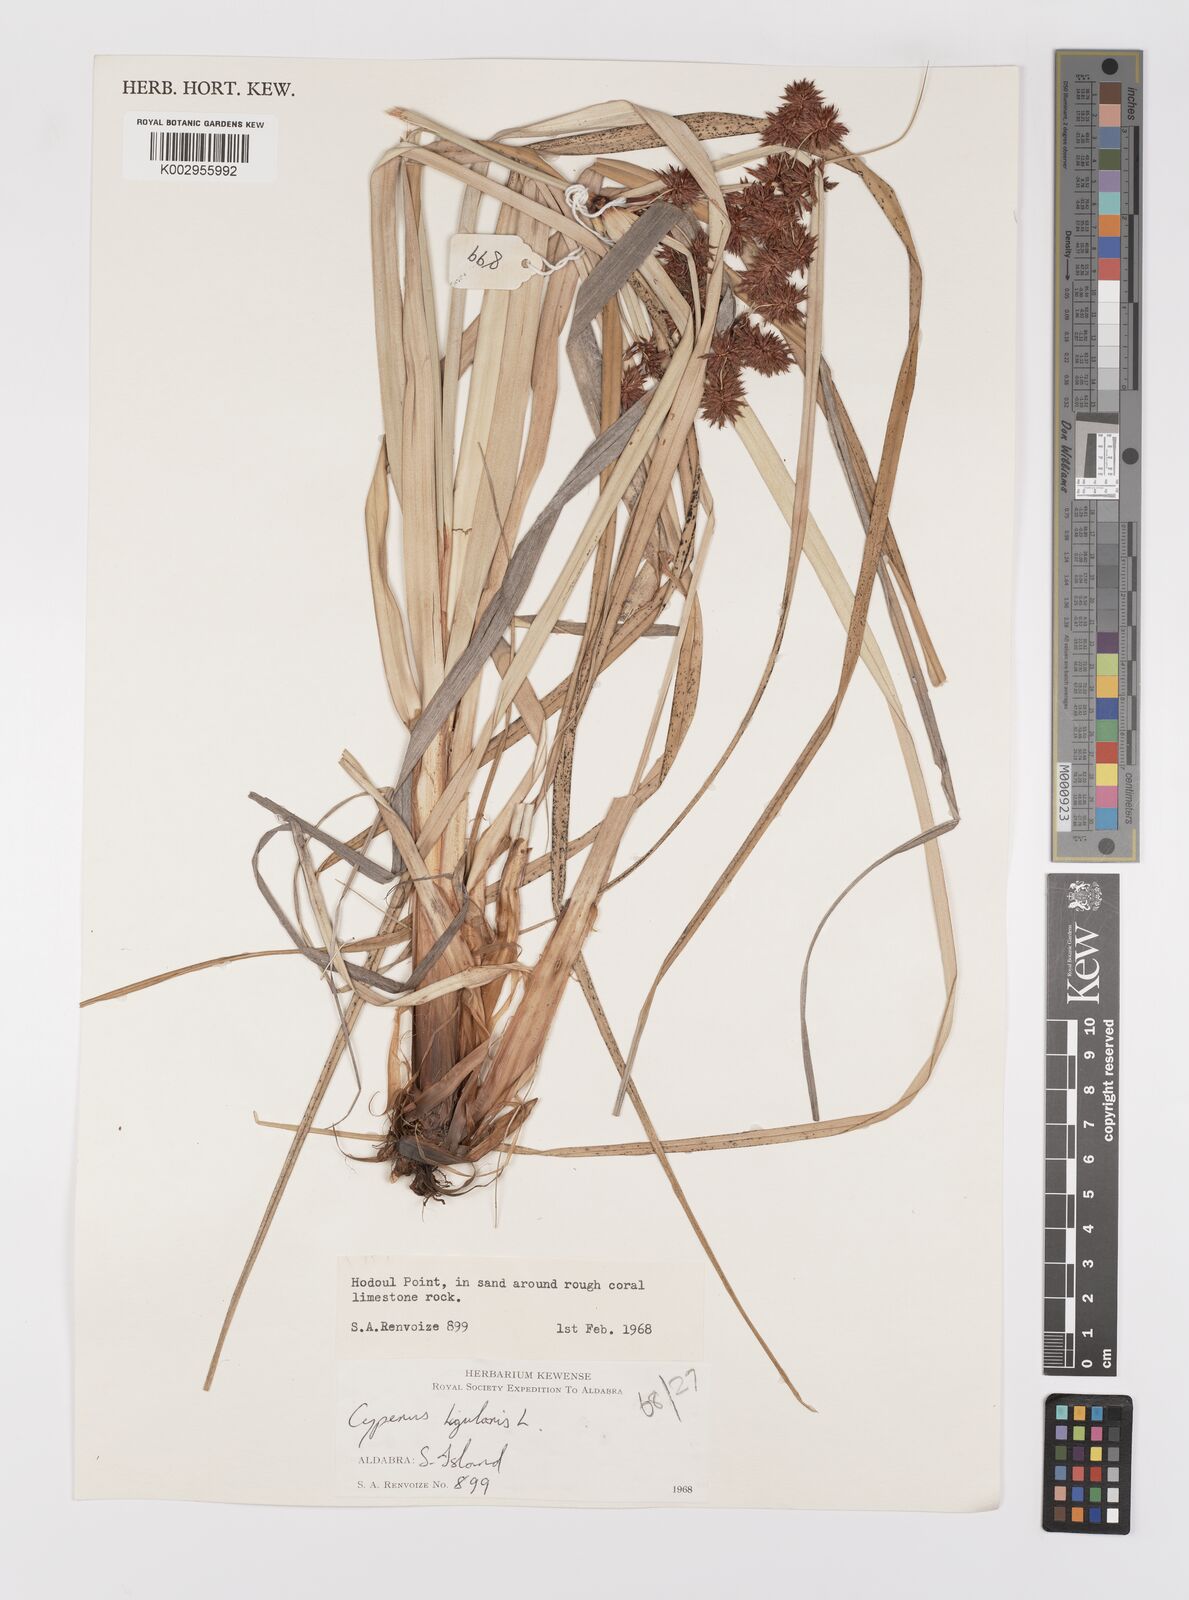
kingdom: Plantae
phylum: Tracheophyta
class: Liliopsida
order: Poales
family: Cyperaceae
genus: Cyperus
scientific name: Cyperus ligularis
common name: Swamp flat sedge
